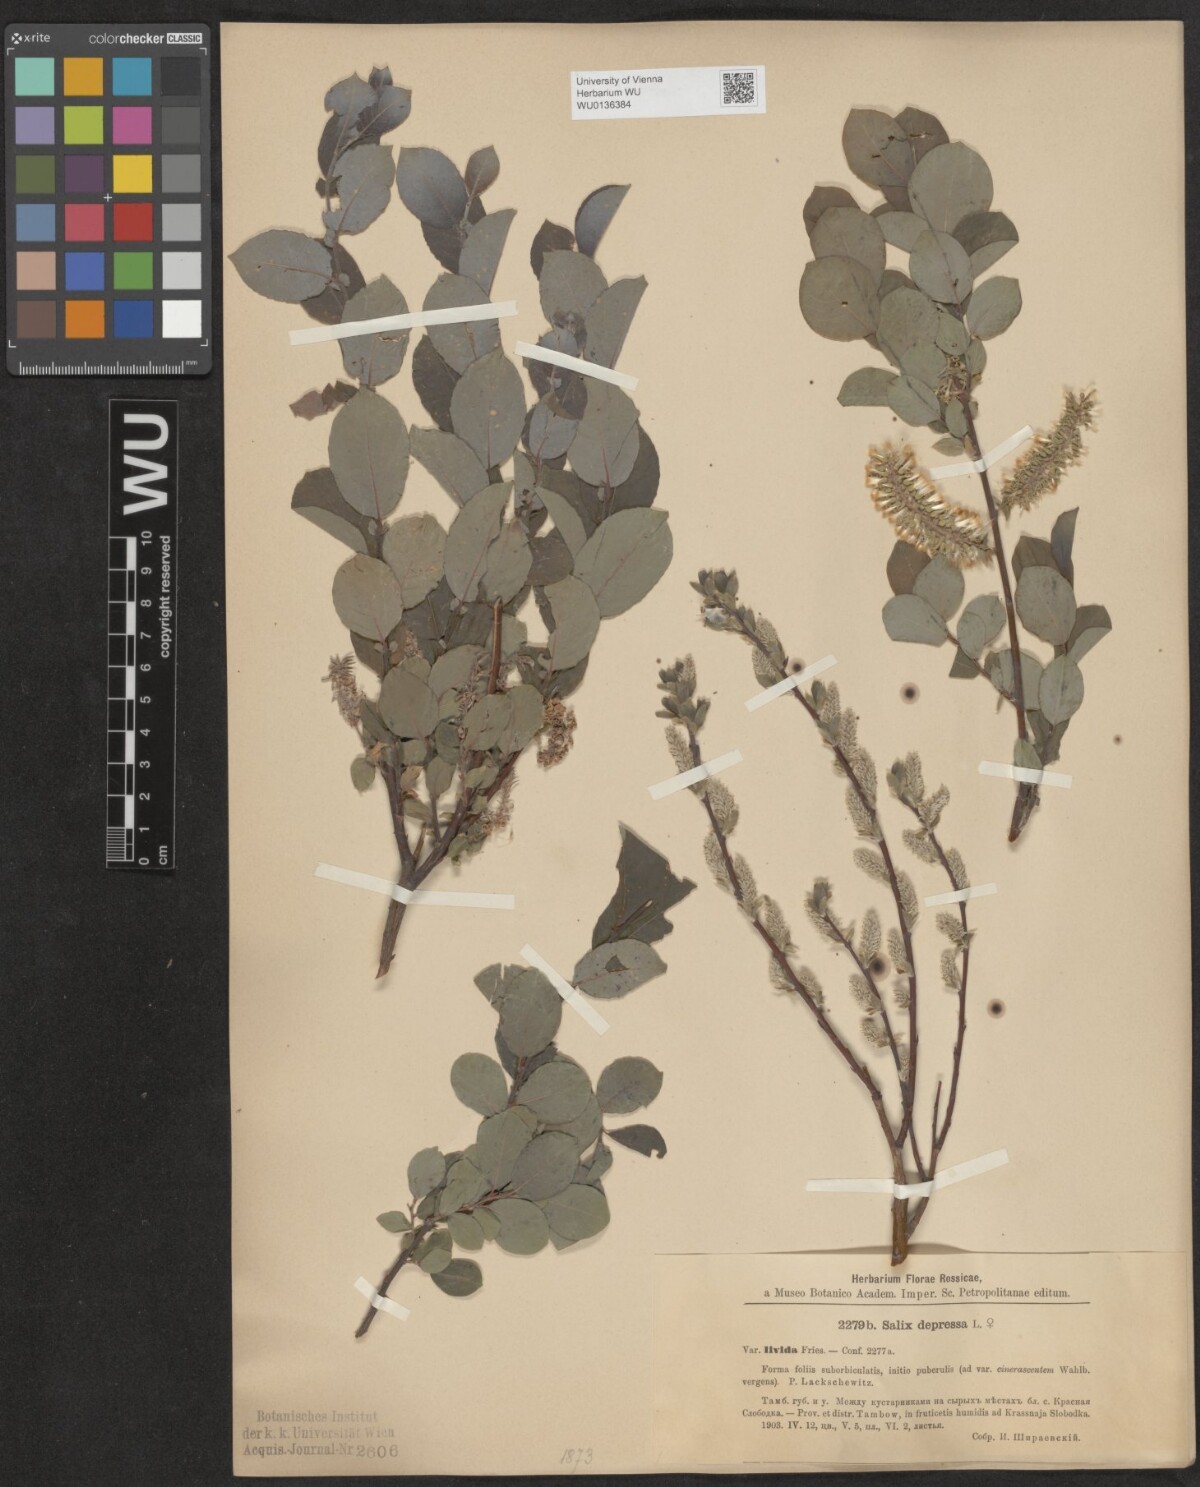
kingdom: Plantae
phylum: Tracheophyta
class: Magnoliopsida
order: Malpighiales
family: Salicaceae
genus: Salix
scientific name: Salix lanata
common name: Woolly willow
